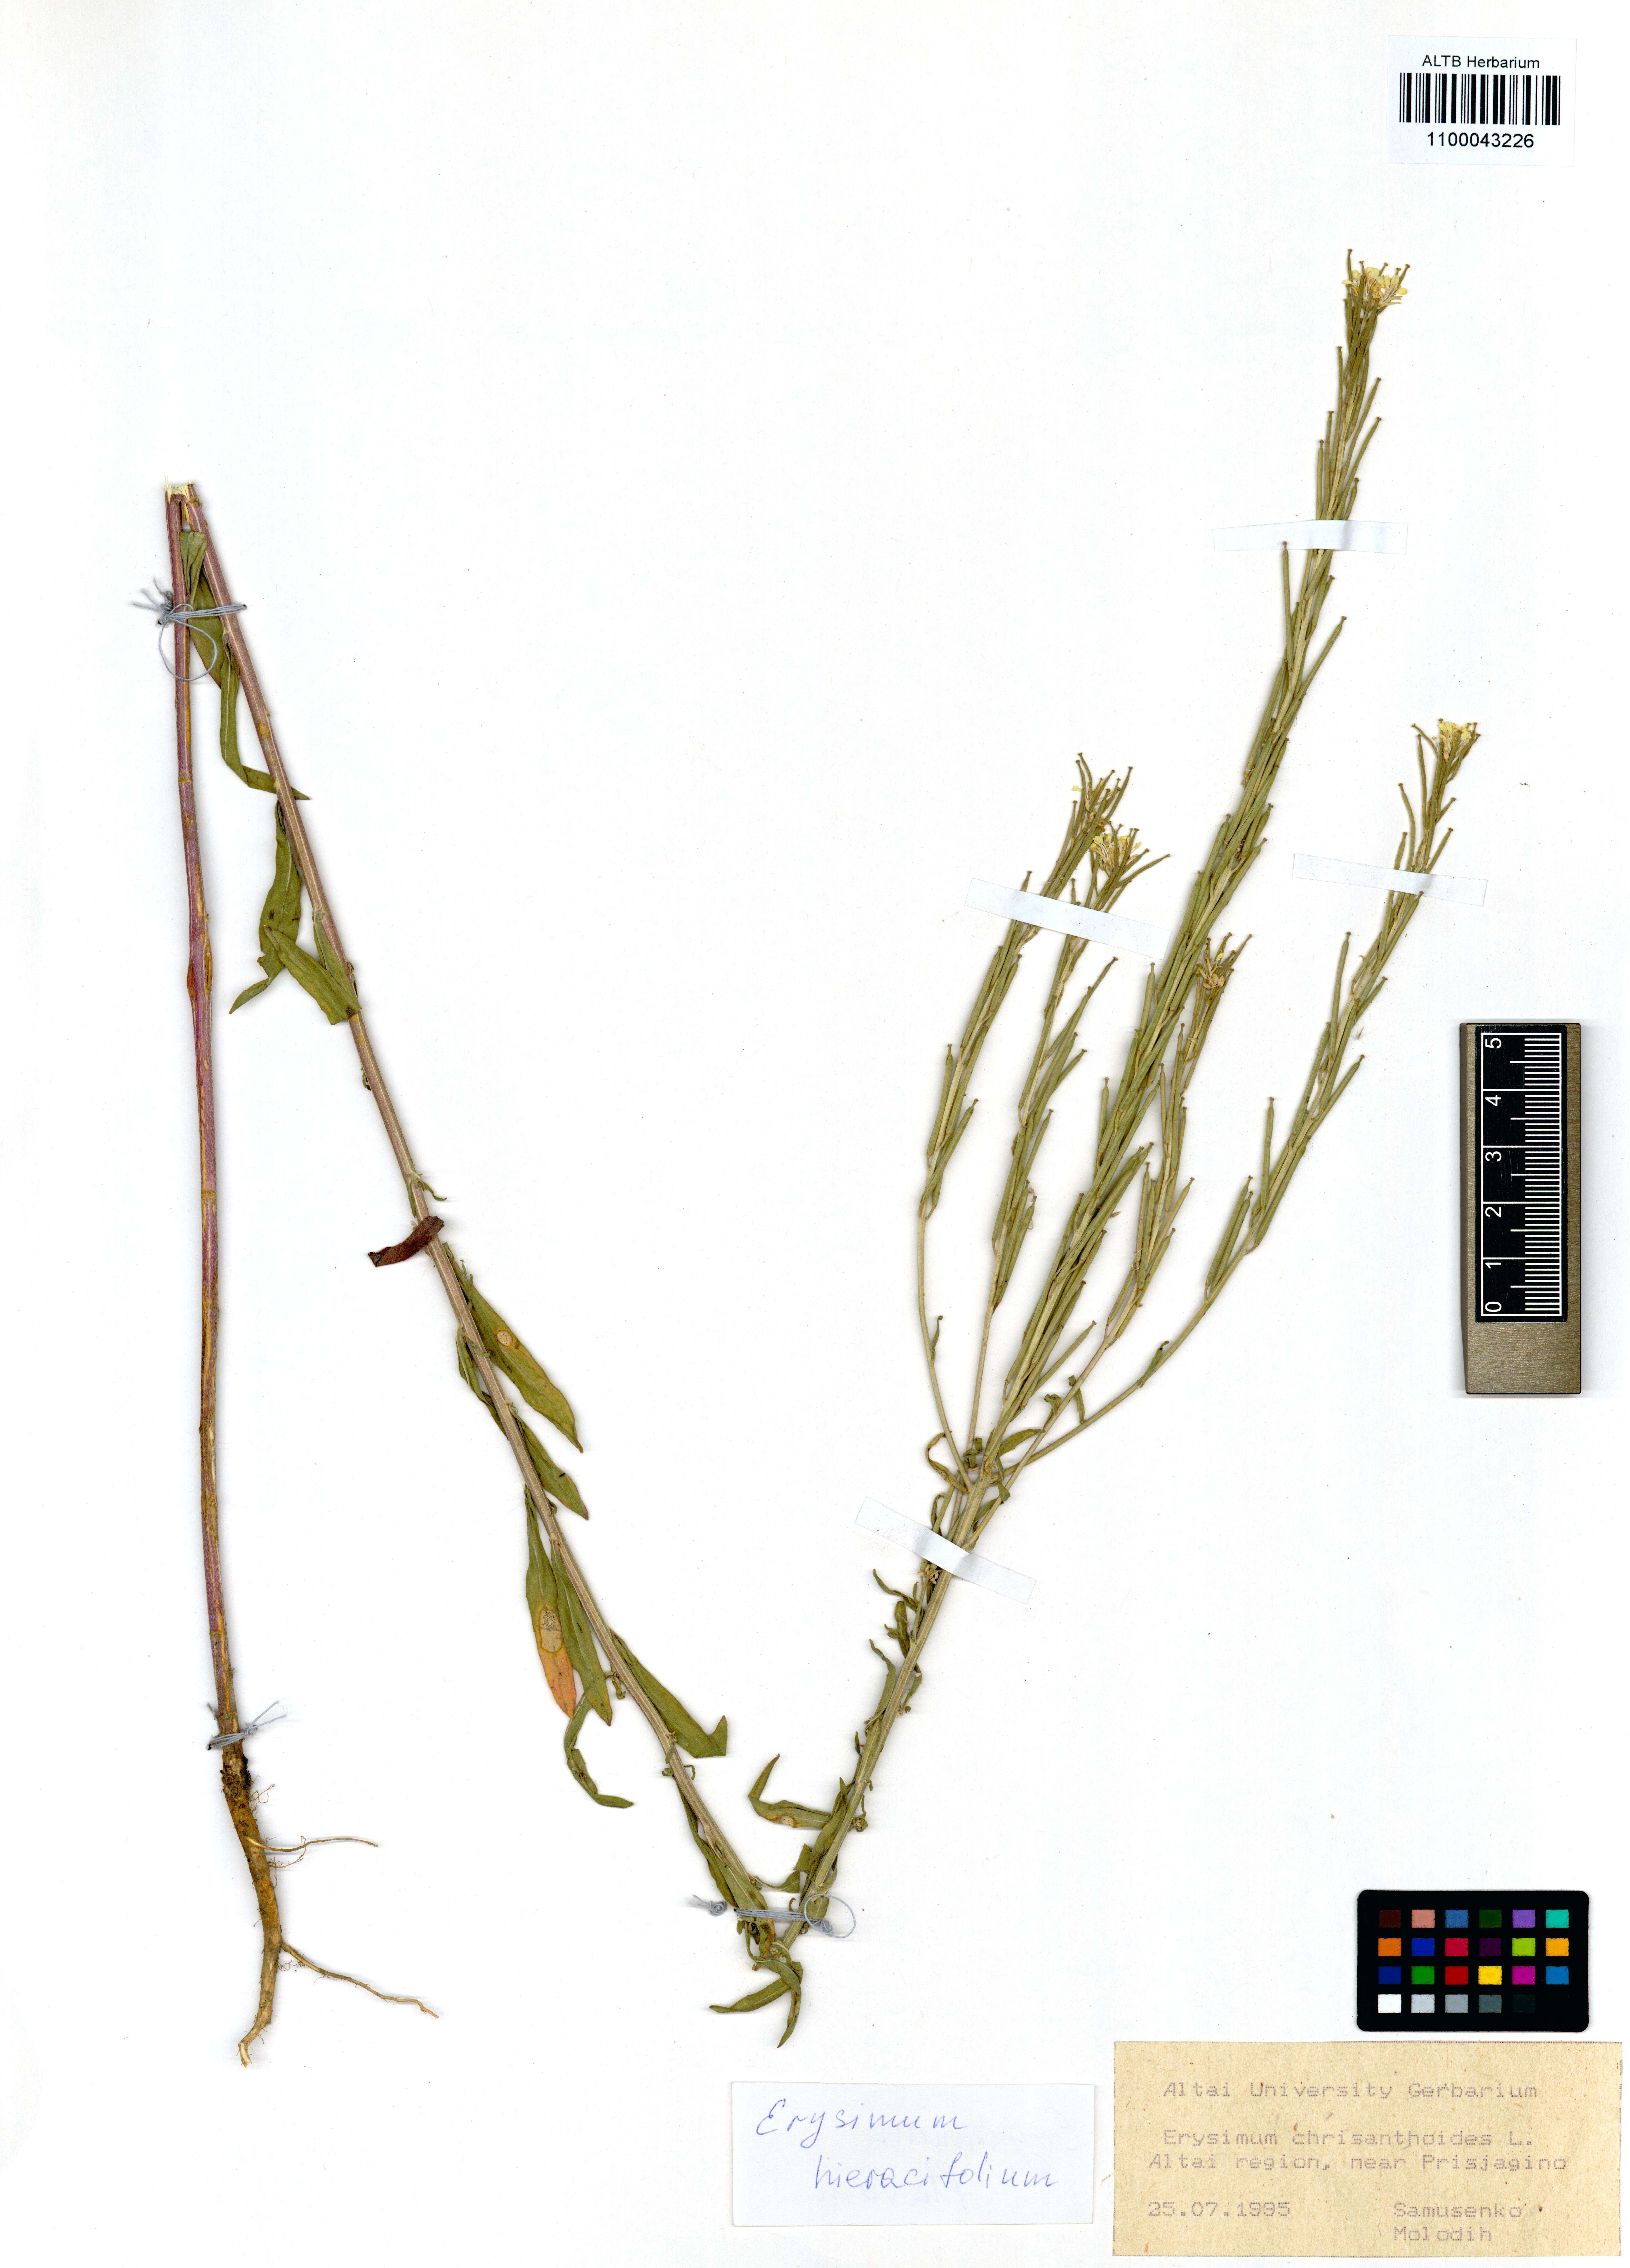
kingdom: Plantae
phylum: Tracheophyta
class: Magnoliopsida
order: Brassicales
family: Brassicaceae
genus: Erysimum
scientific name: Erysimum hieraciifolium
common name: European wallflower
